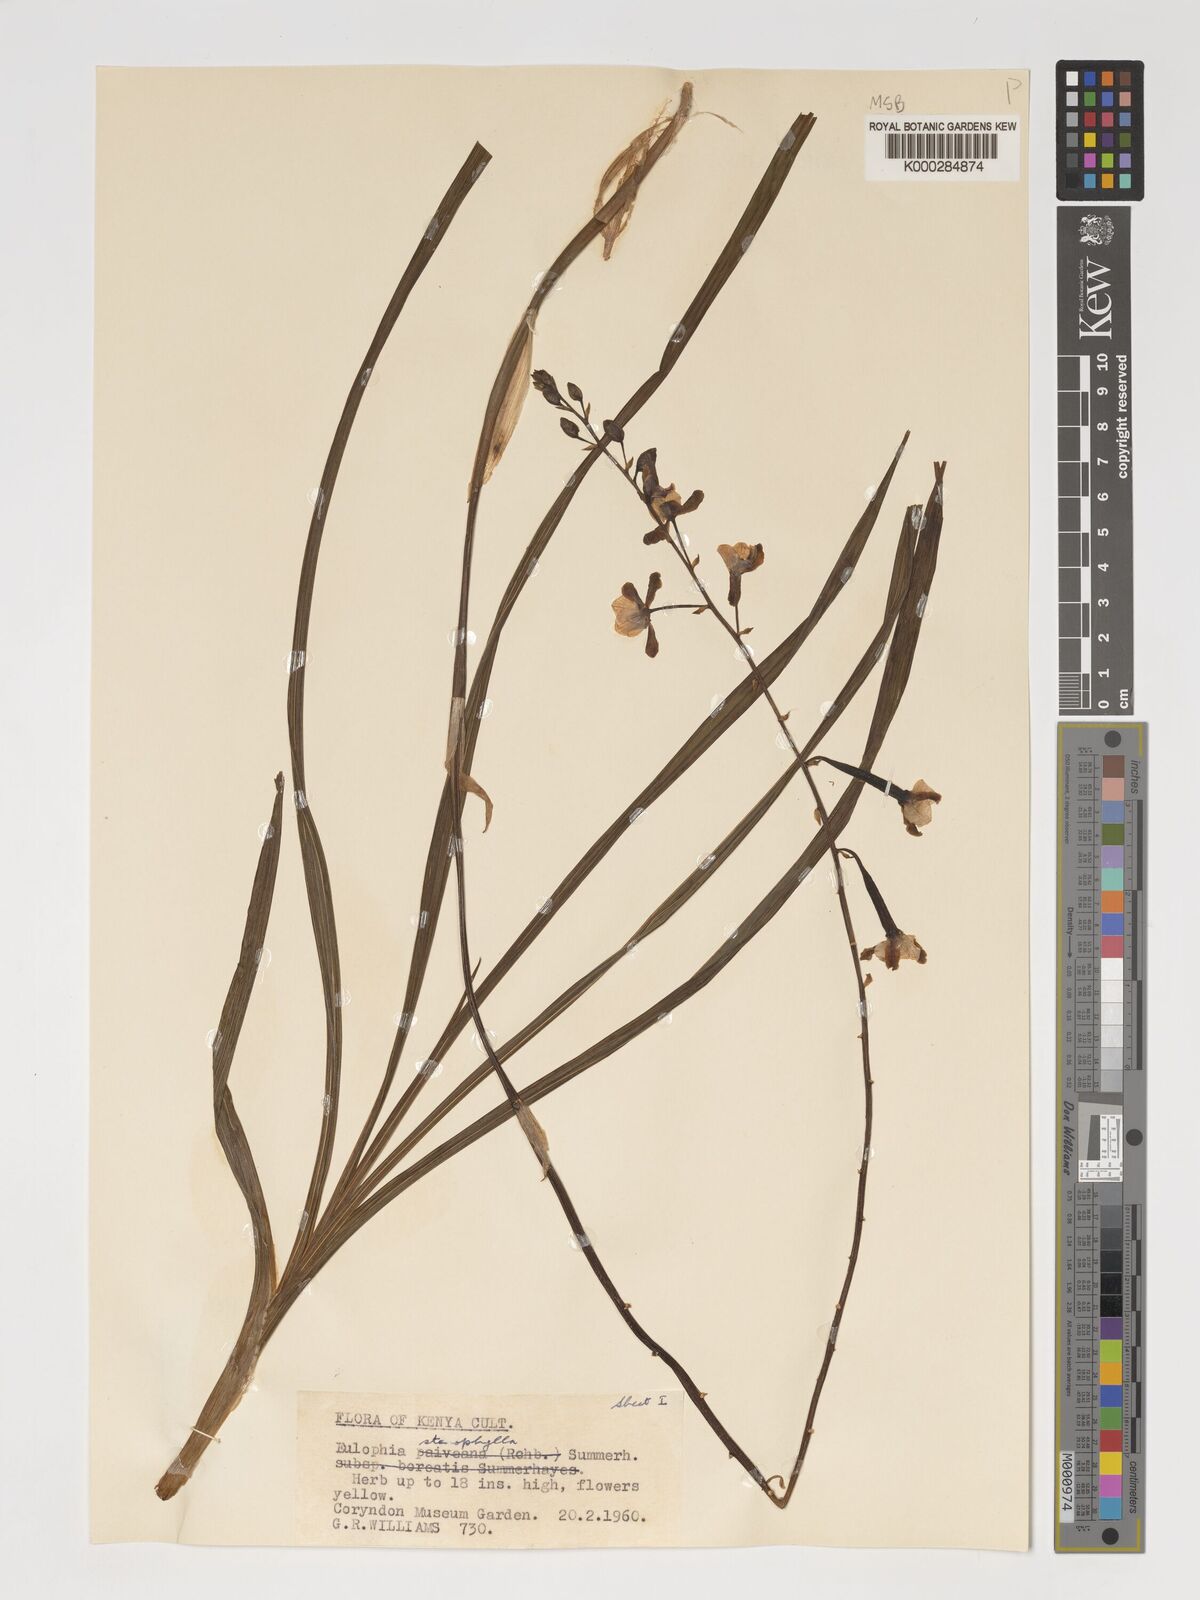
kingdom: Plantae
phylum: Tracheophyta
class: Liliopsida
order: Asparagales
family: Orchidaceae
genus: Eulophia
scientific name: Eulophia streptopetala
